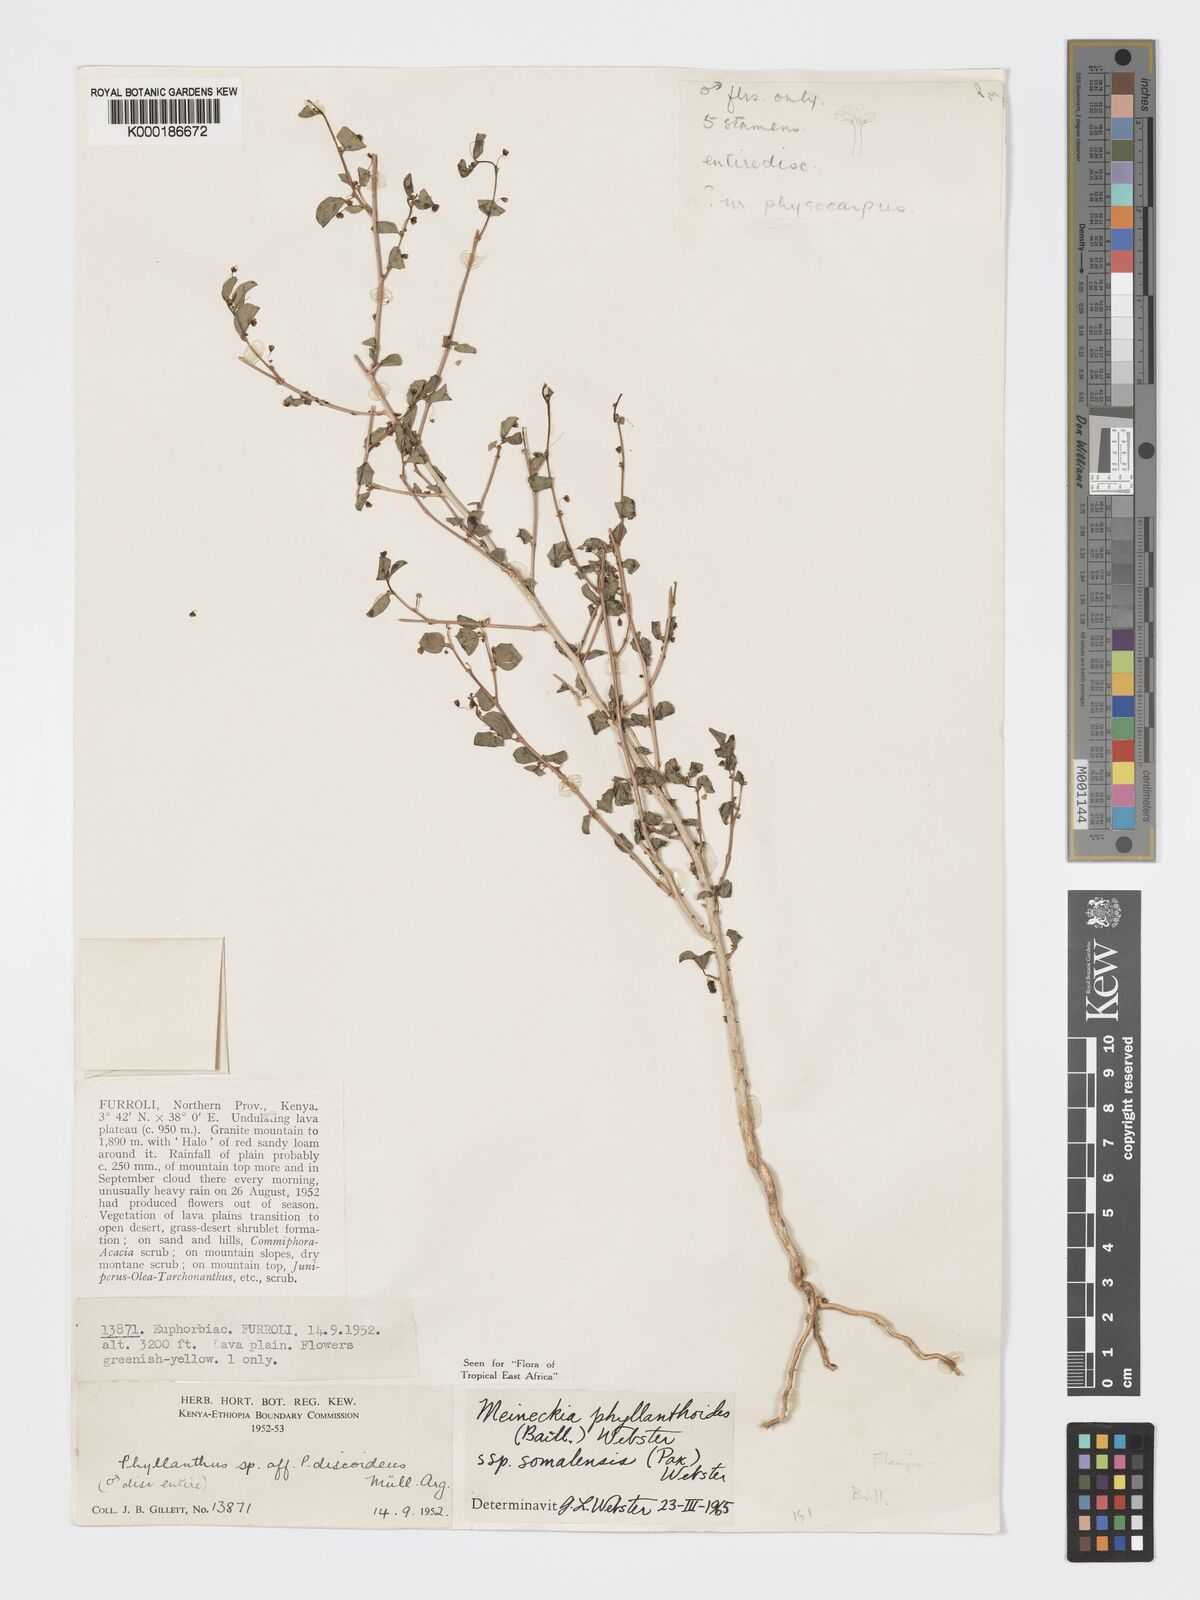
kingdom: Plantae
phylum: Tracheophyta
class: Magnoliopsida
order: Malpighiales
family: Phyllanthaceae
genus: Meineckia
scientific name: Meineckia phyllanthoides
